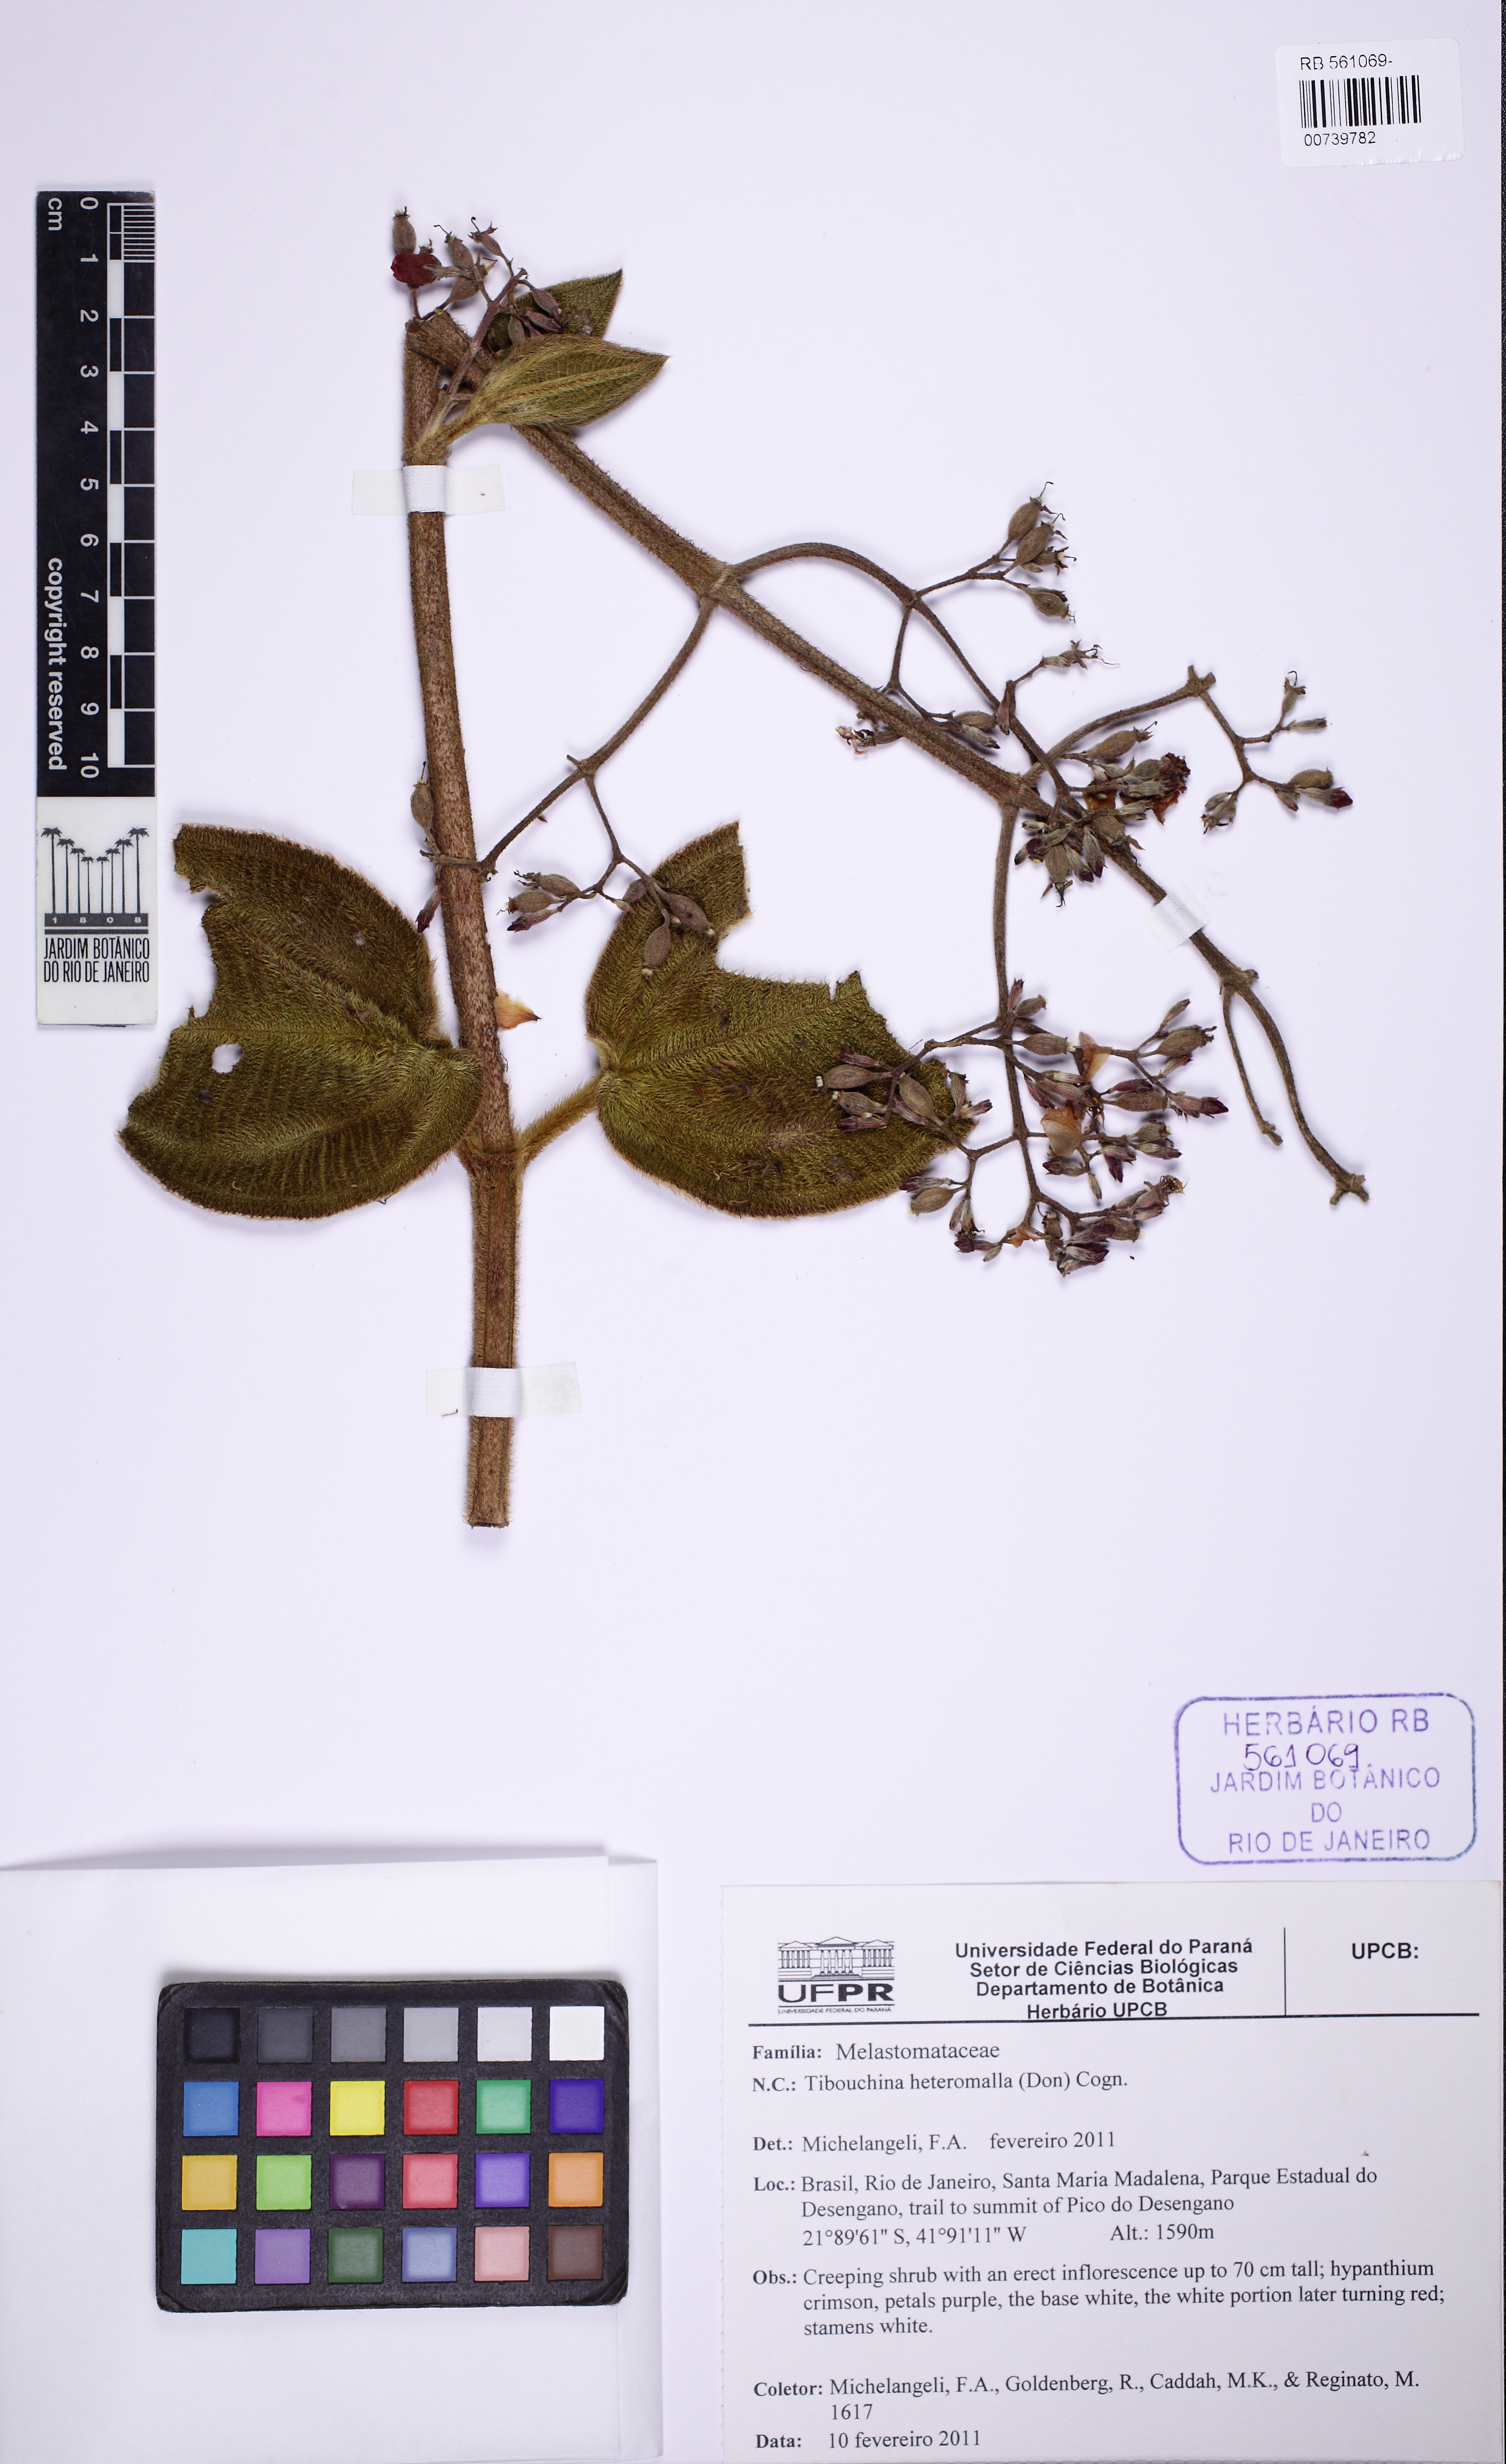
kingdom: Plantae
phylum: Tracheophyta
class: Magnoliopsida
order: Myrtales
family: Melastomataceae
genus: Pleroma
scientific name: Pleroma heteromallum
